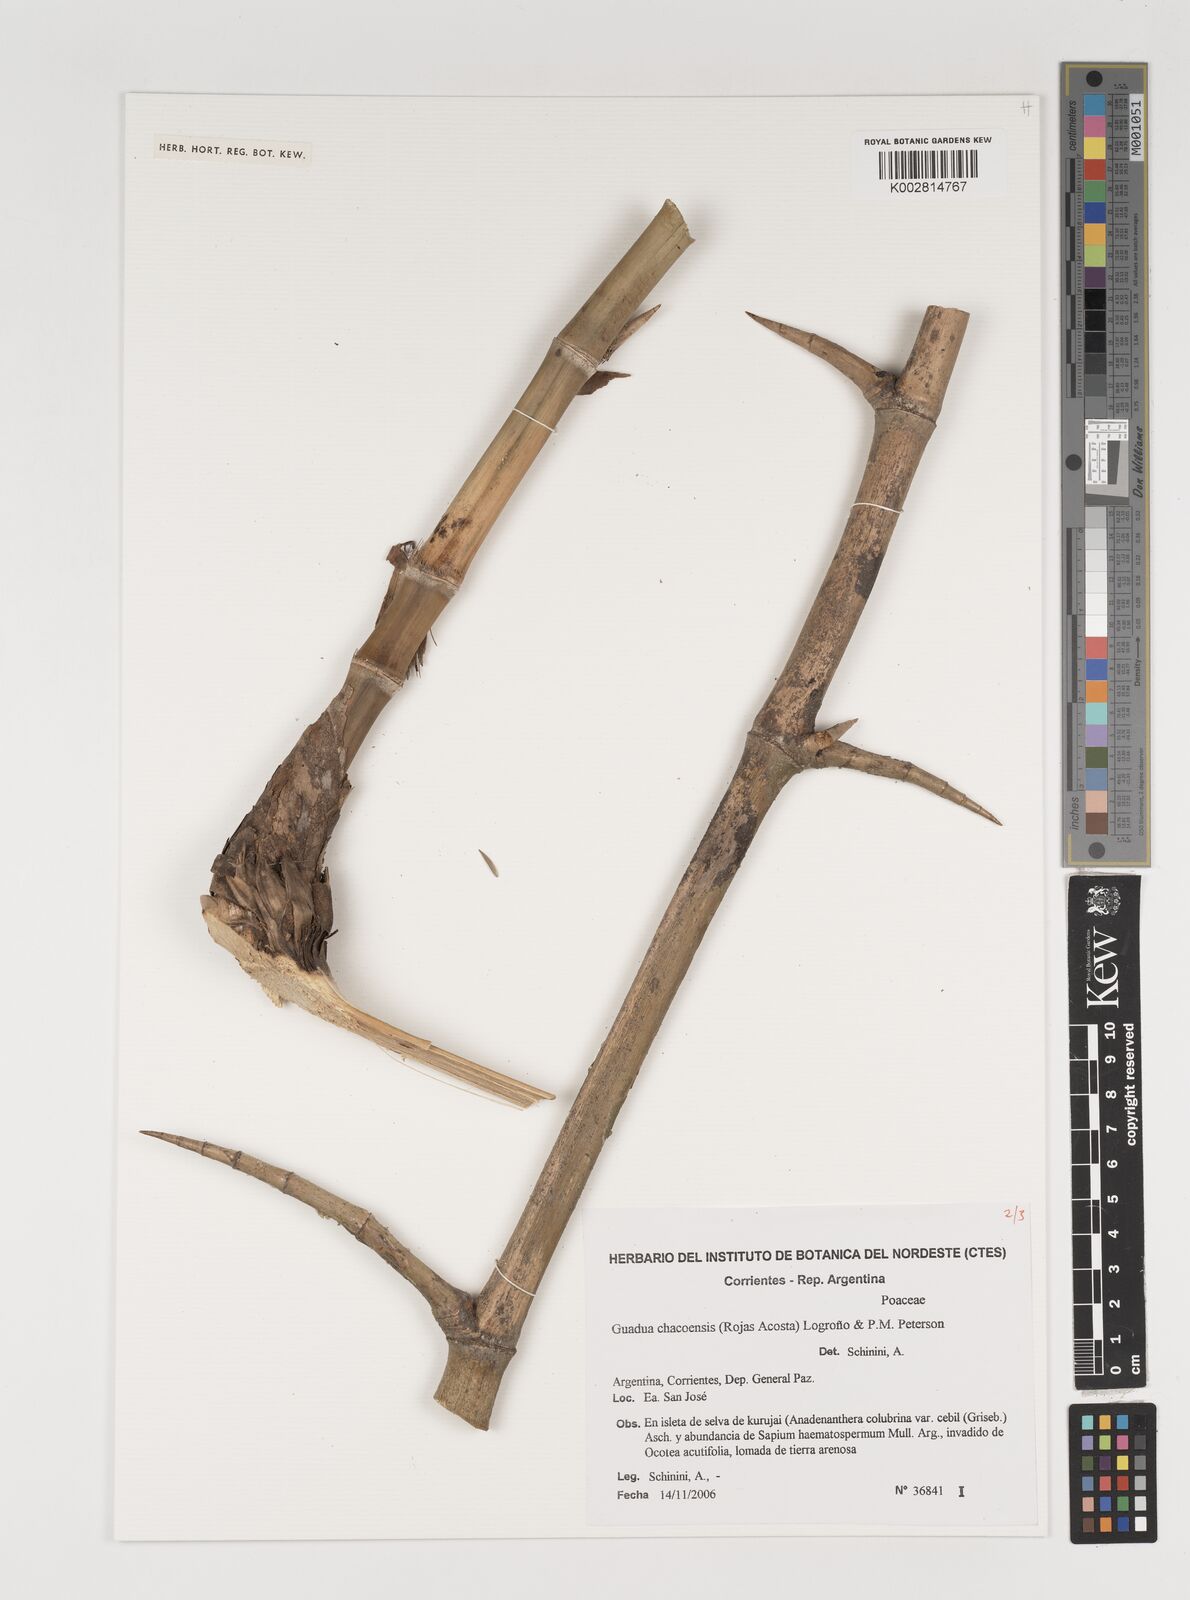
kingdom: Plantae
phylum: Tracheophyta
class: Liliopsida
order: Poales
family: Poaceae
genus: Guadua
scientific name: Guadua chacoensis
